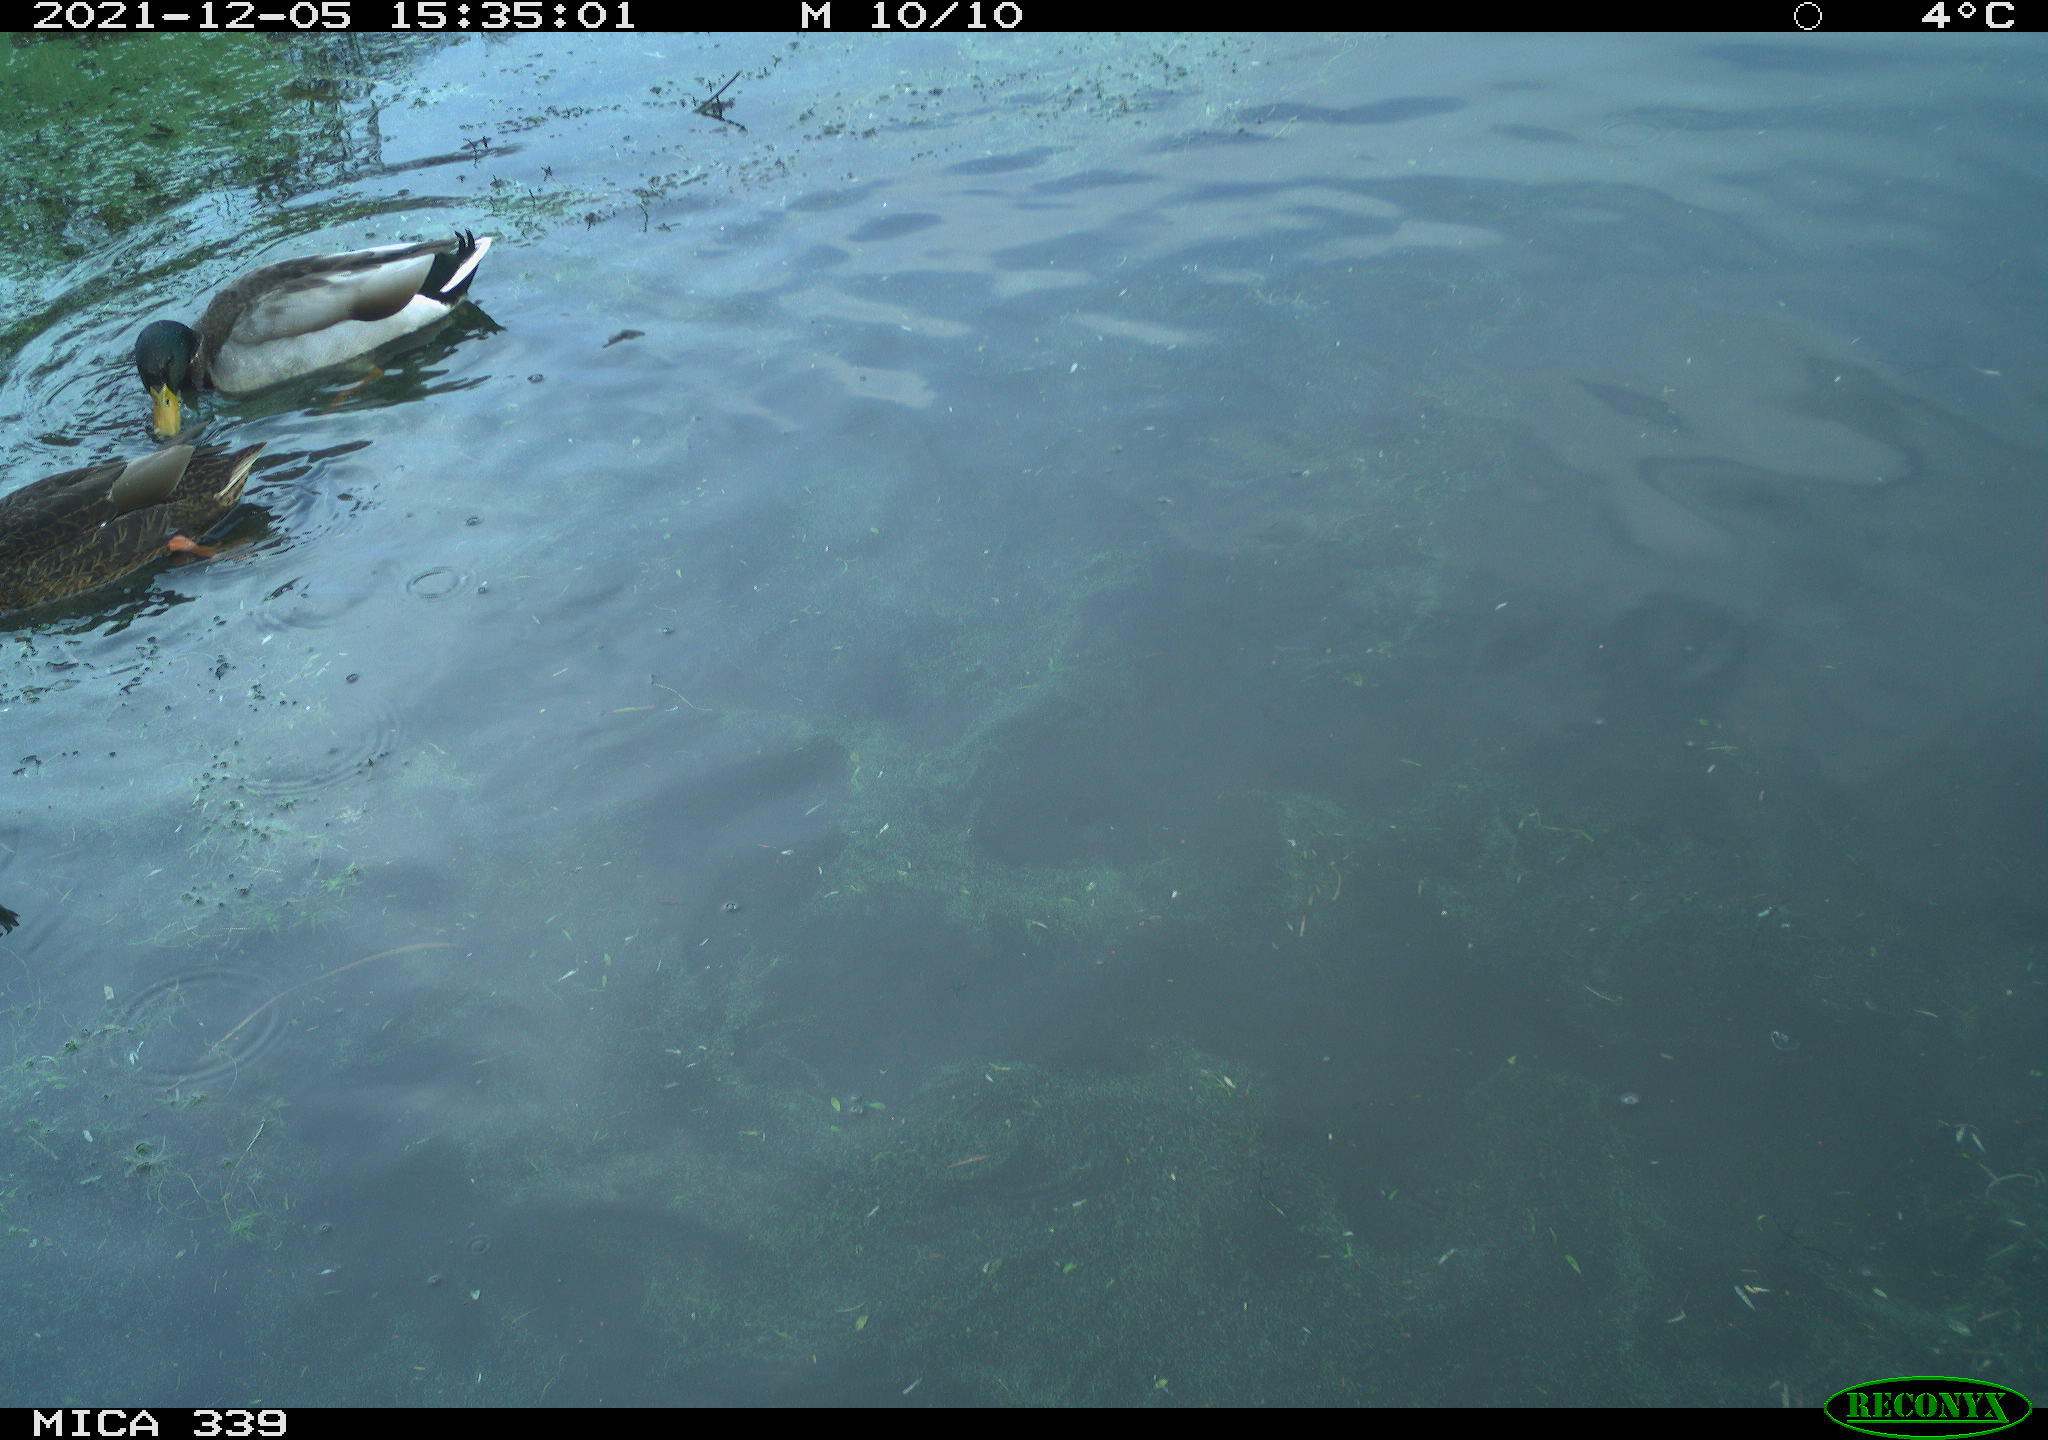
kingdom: Animalia
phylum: Chordata
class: Aves
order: Anseriformes
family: Anatidae
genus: Anas
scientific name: Anas platyrhynchos
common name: Mallard
